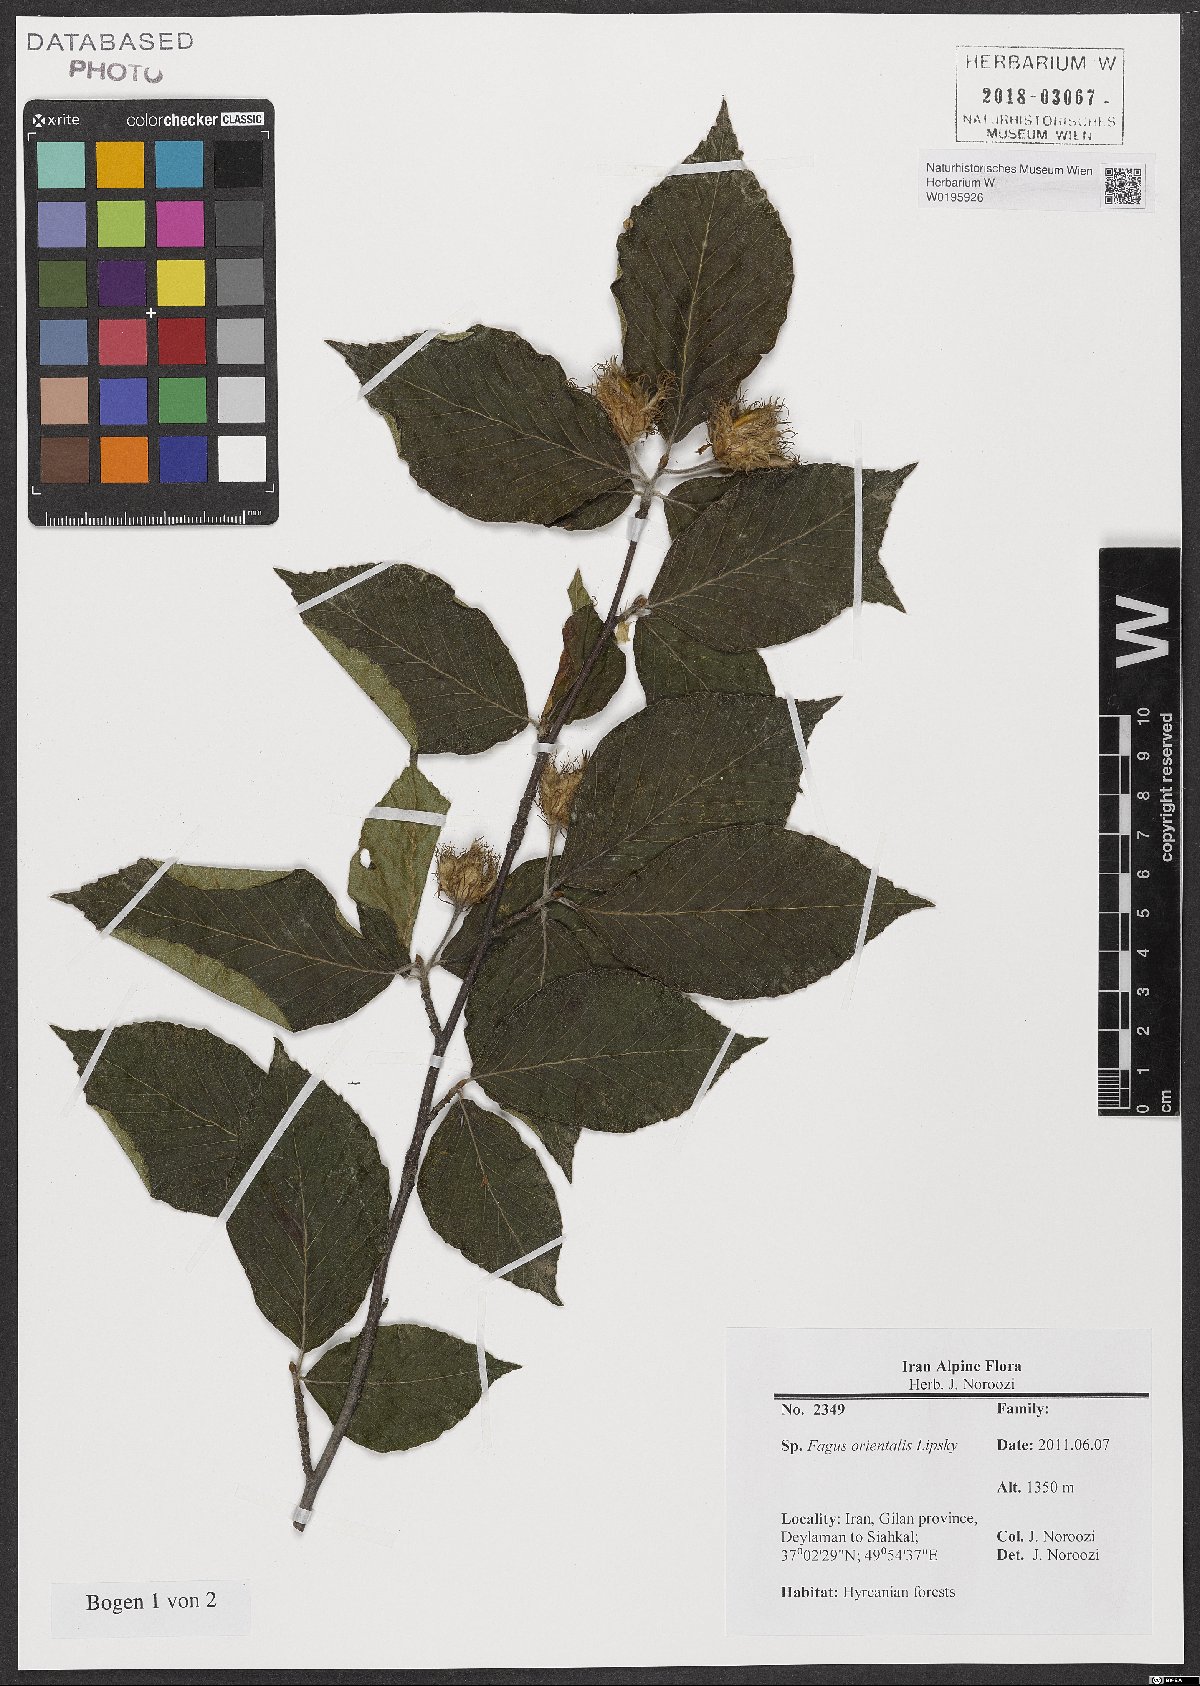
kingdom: Plantae
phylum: Tracheophyta
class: Magnoliopsida
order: Fagales
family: Fagaceae
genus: Fagus
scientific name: Fagus orientalis
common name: Oriental beech
